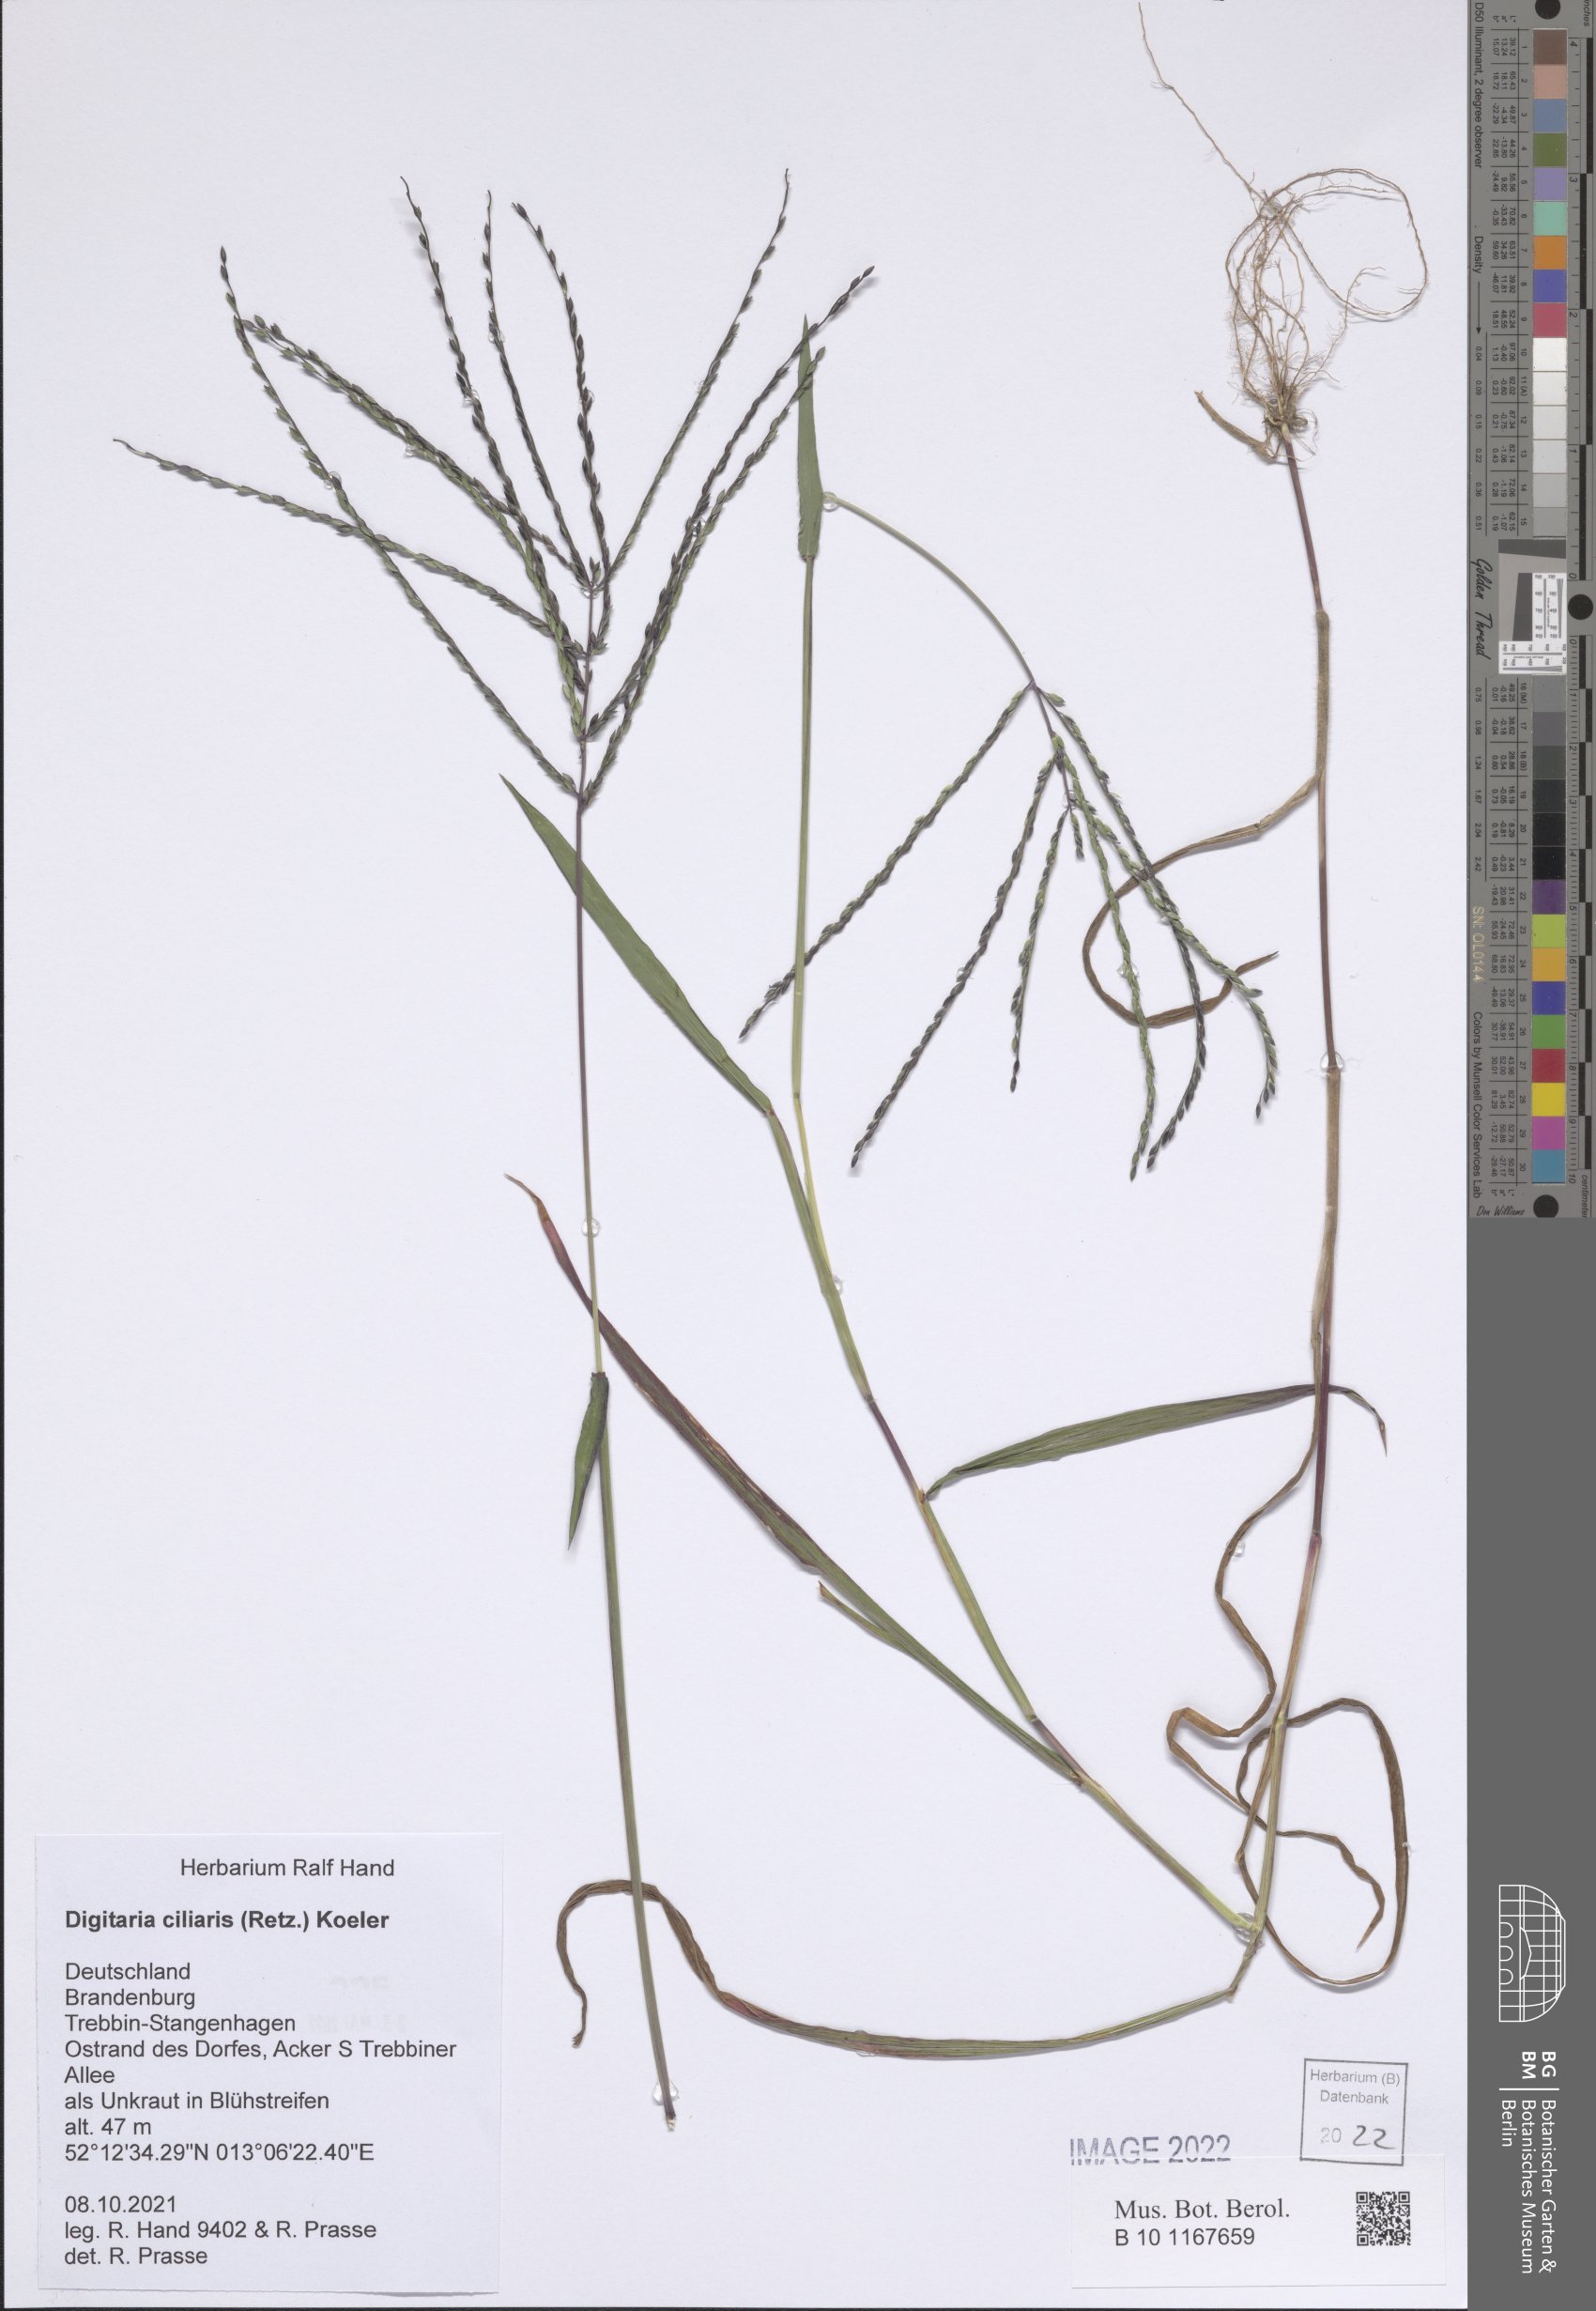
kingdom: Plantae
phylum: Tracheophyta
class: Liliopsida
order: Poales
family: Poaceae
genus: Digitaria
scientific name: Digitaria ciliaris
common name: Tropical finger-grass
